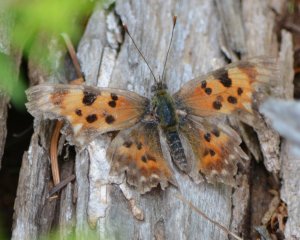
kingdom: Animalia
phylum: Arthropoda
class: Insecta
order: Lepidoptera
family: Nymphalidae
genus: Polygonia
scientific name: Polygonia faunus
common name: Green Comma
